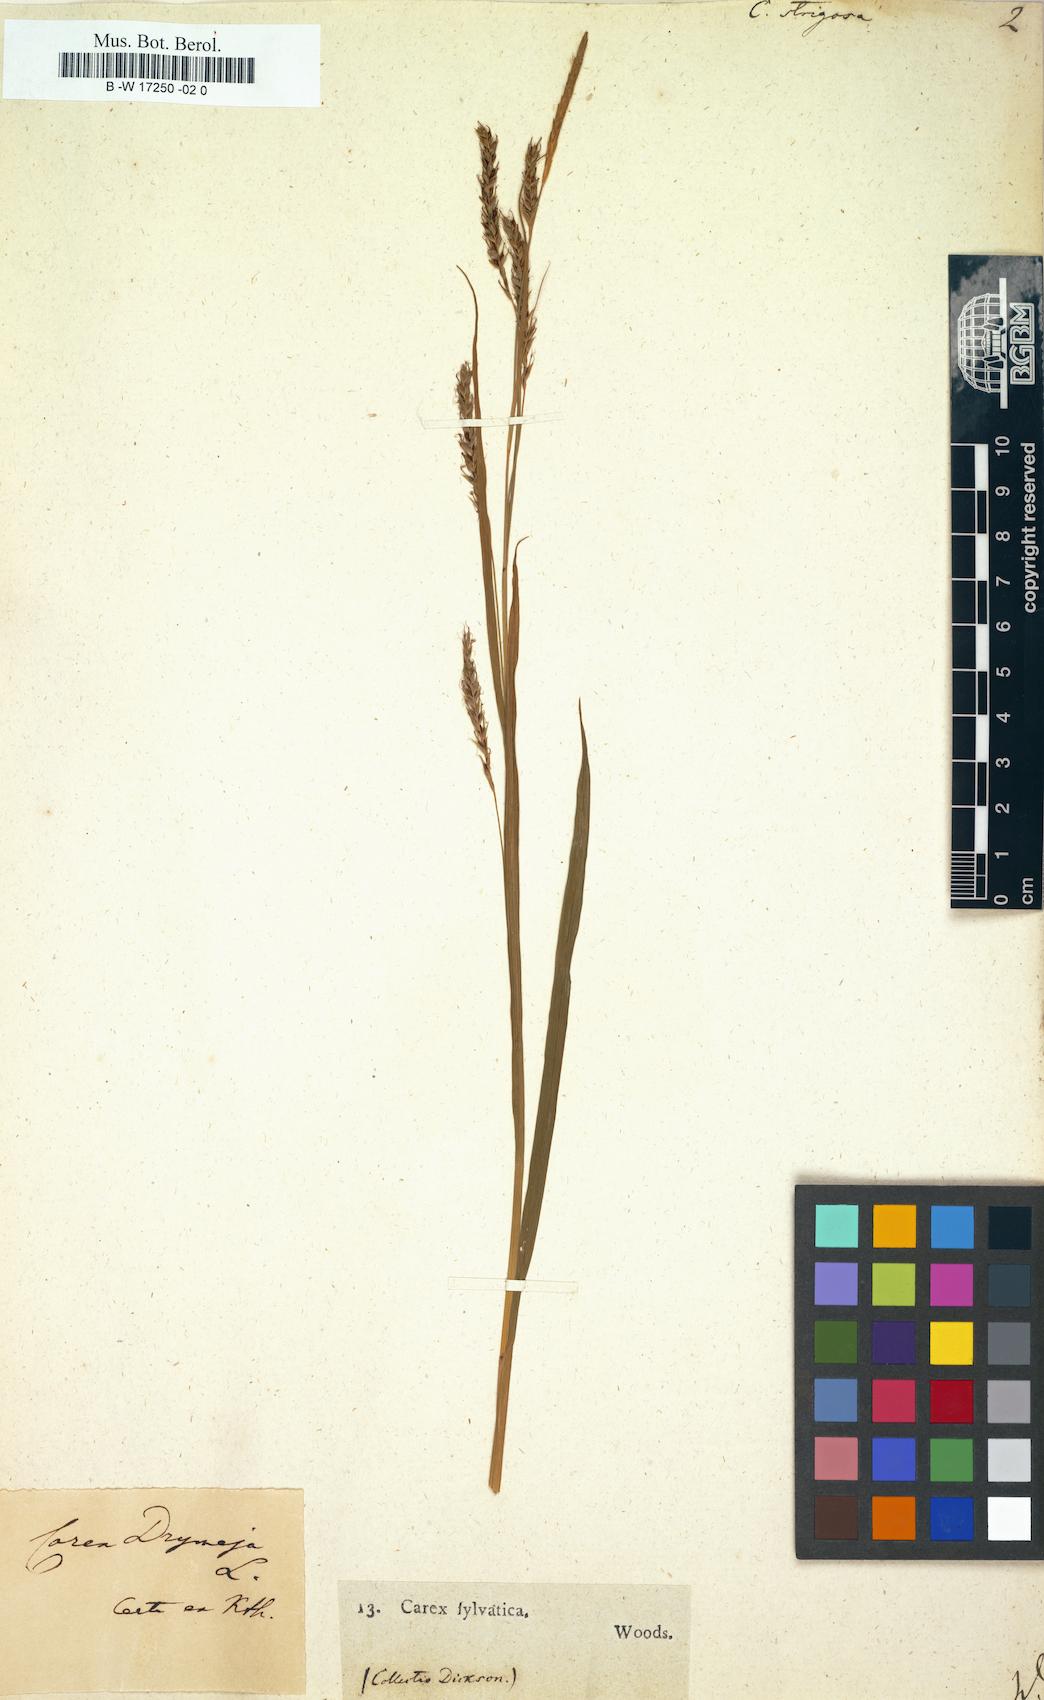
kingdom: Plantae
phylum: Tracheophyta
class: Liliopsida
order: Poales
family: Cyperaceae
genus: Carex
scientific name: Carex strigosa
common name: Thin-spiked wood-sedge
